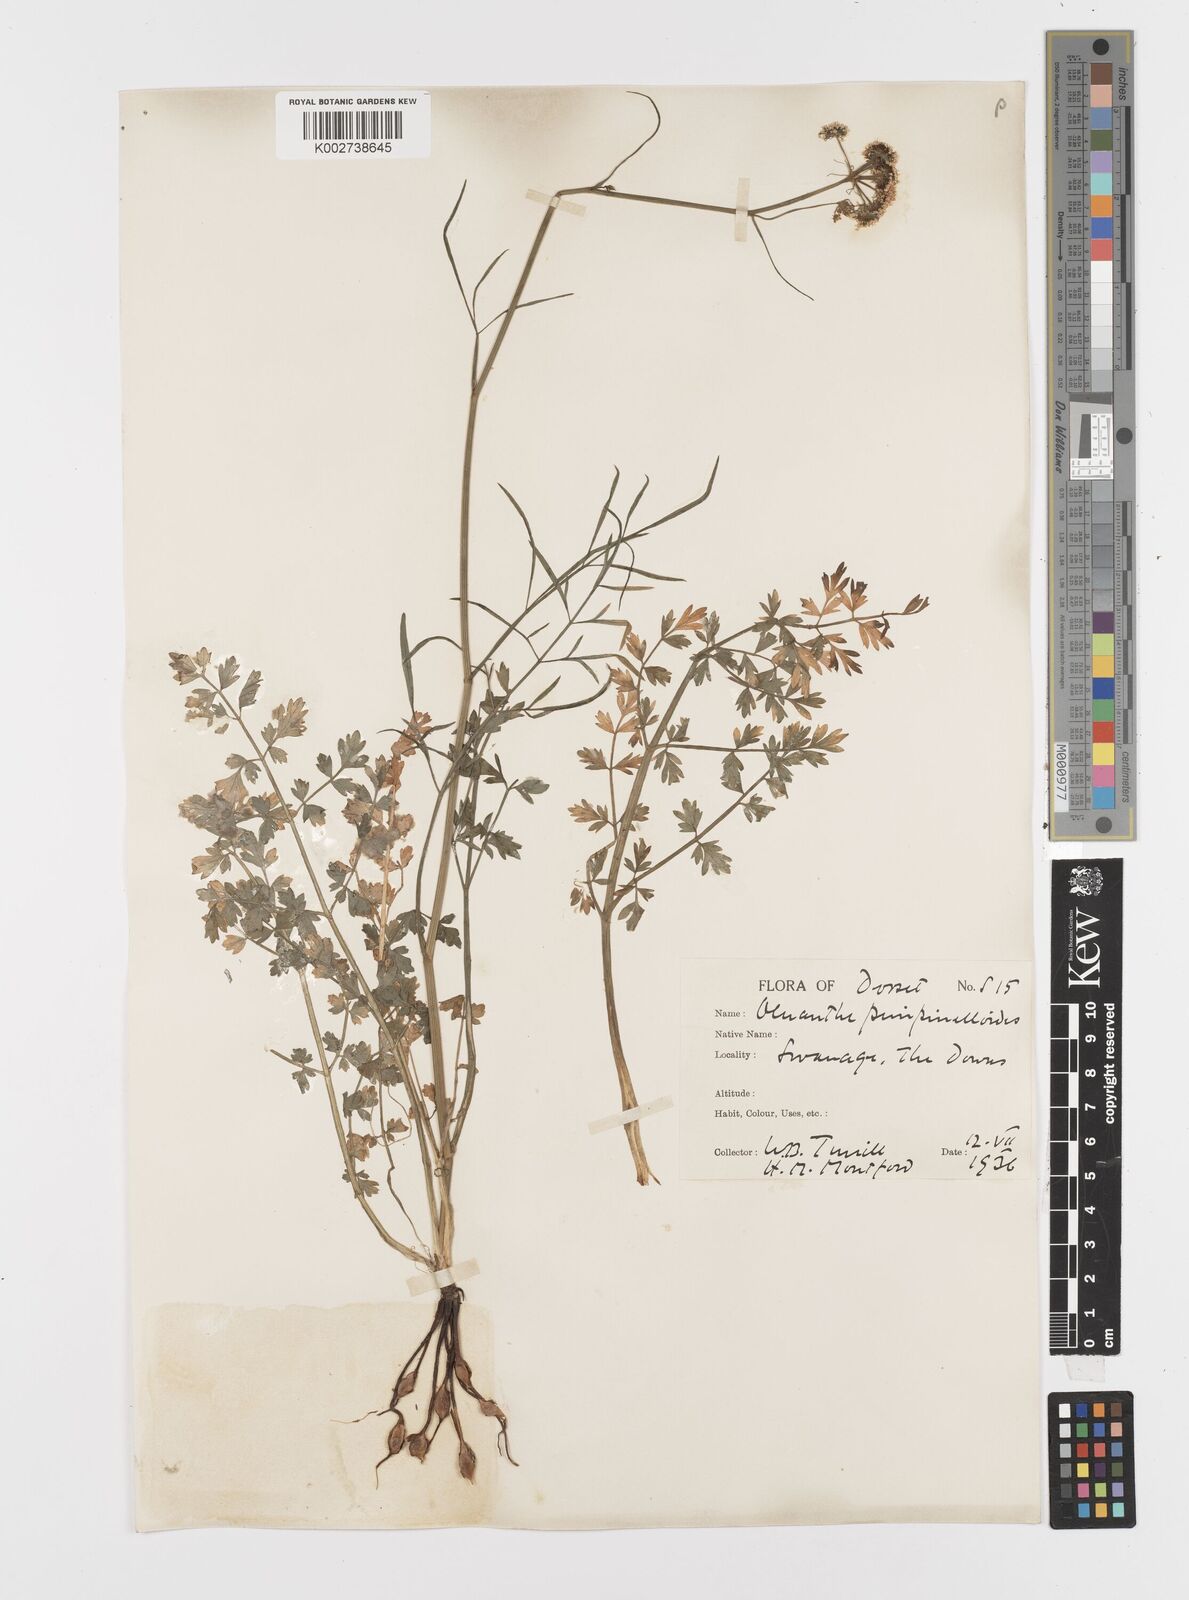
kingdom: Plantae
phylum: Tracheophyta
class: Magnoliopsida
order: Apiales
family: Apiaceae
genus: Oenanthe
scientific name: Oenanthe pimpinelloides
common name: Corky-fruited water-dropwort
